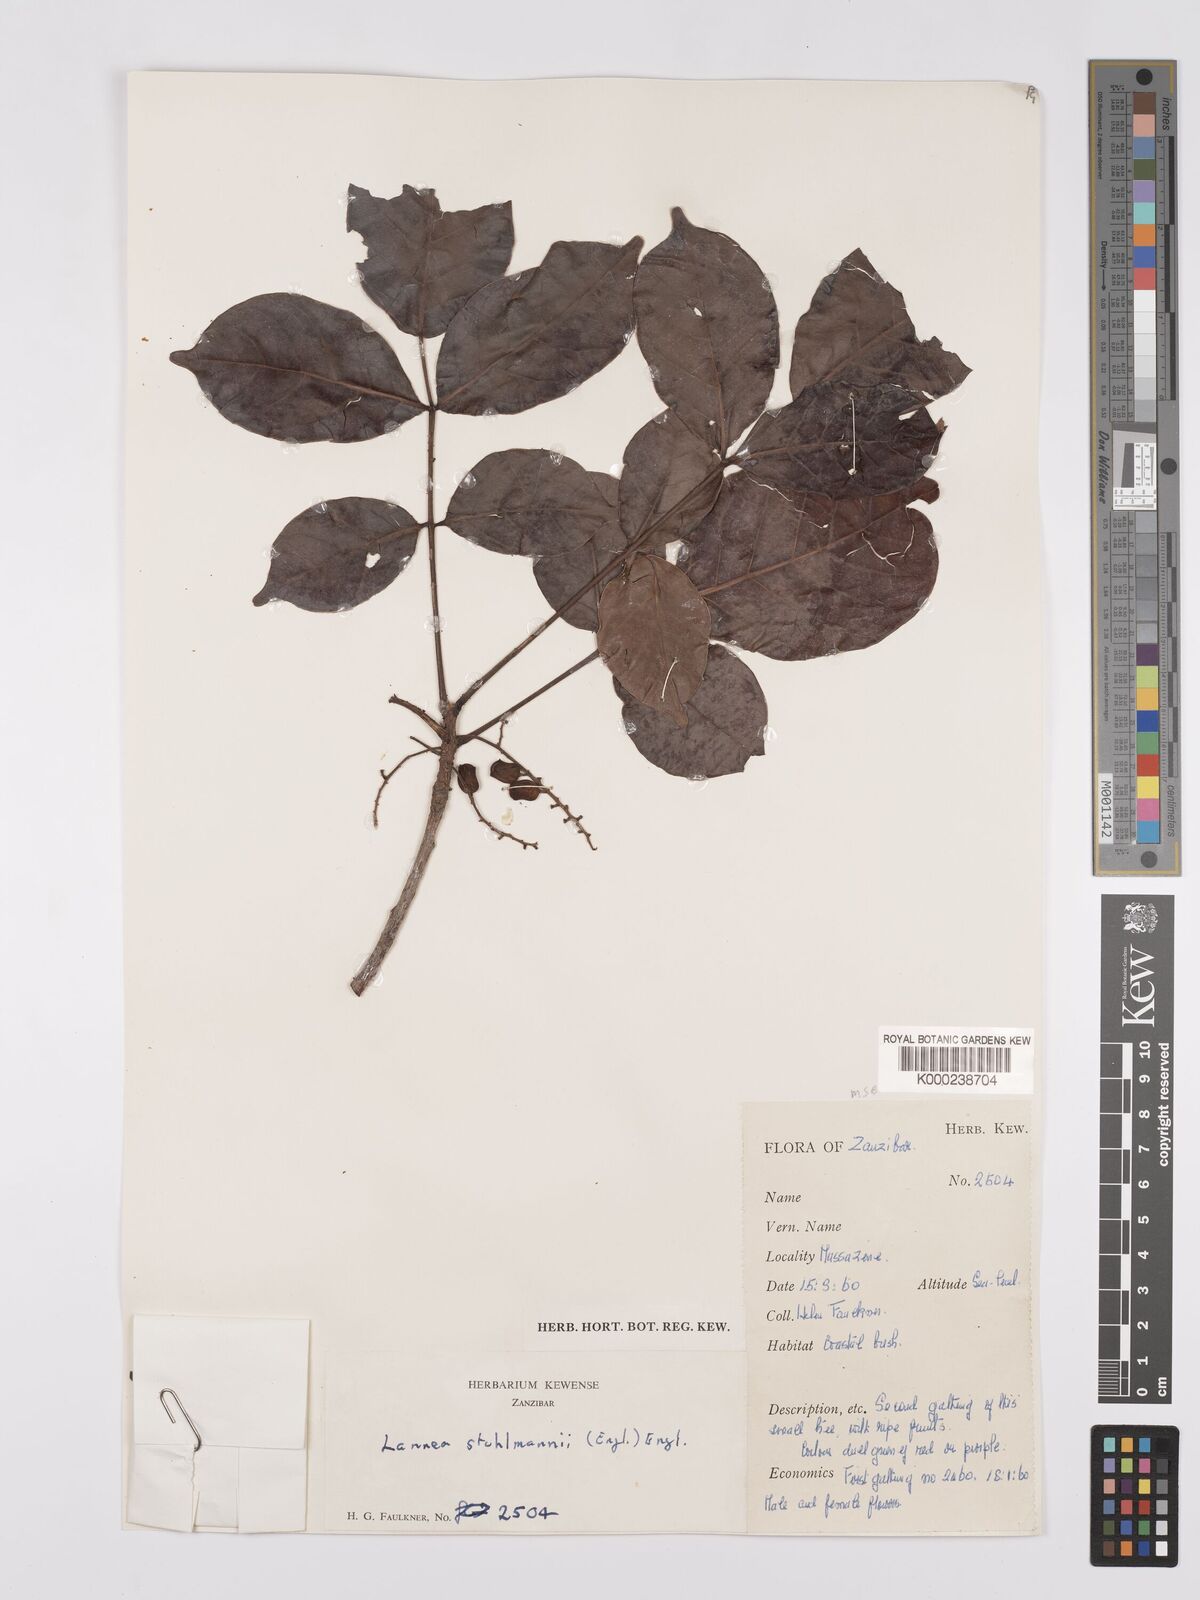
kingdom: Plantae
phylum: Tracheophyta
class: Magnoliopsida
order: Sapindales
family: Anacardiaceae
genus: Lannea
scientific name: Lannea schweinfurthii
